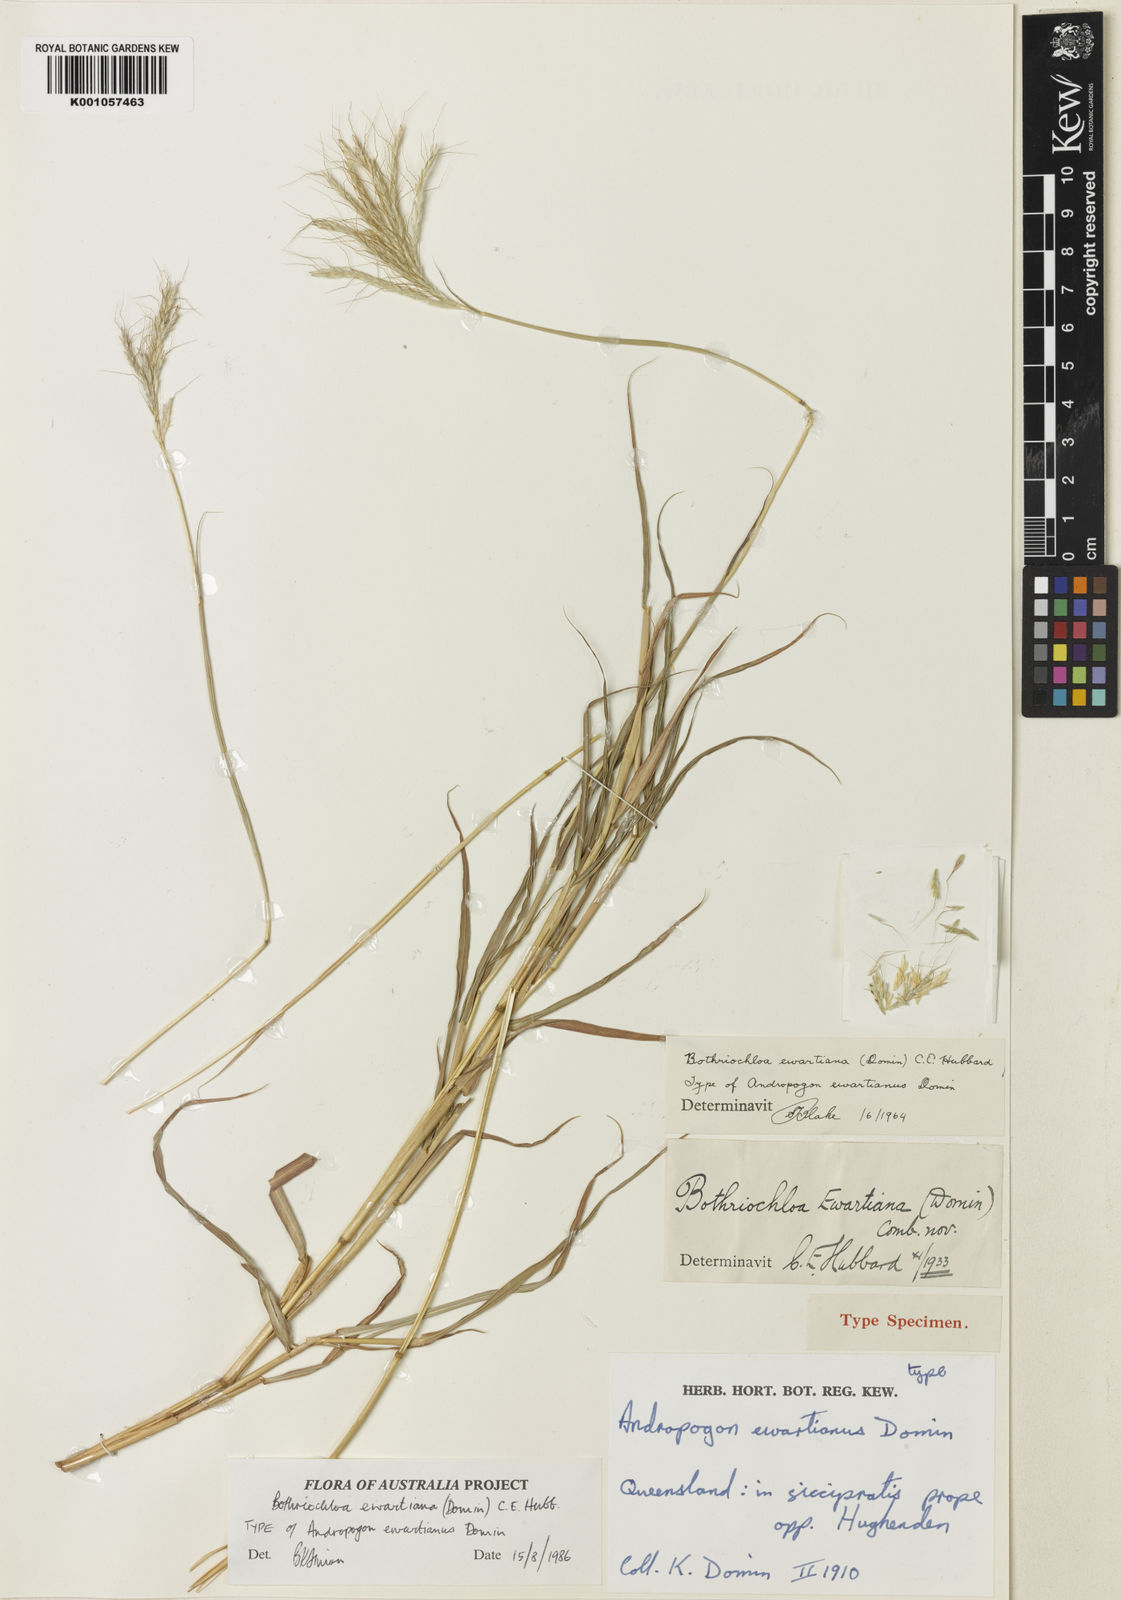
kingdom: Plantae
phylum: Tracheophyta
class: Liliopsida
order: Poales
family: Poaceae
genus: Bothriochloa
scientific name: Bothriochloa ewartiana
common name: Desert-bluegrass
